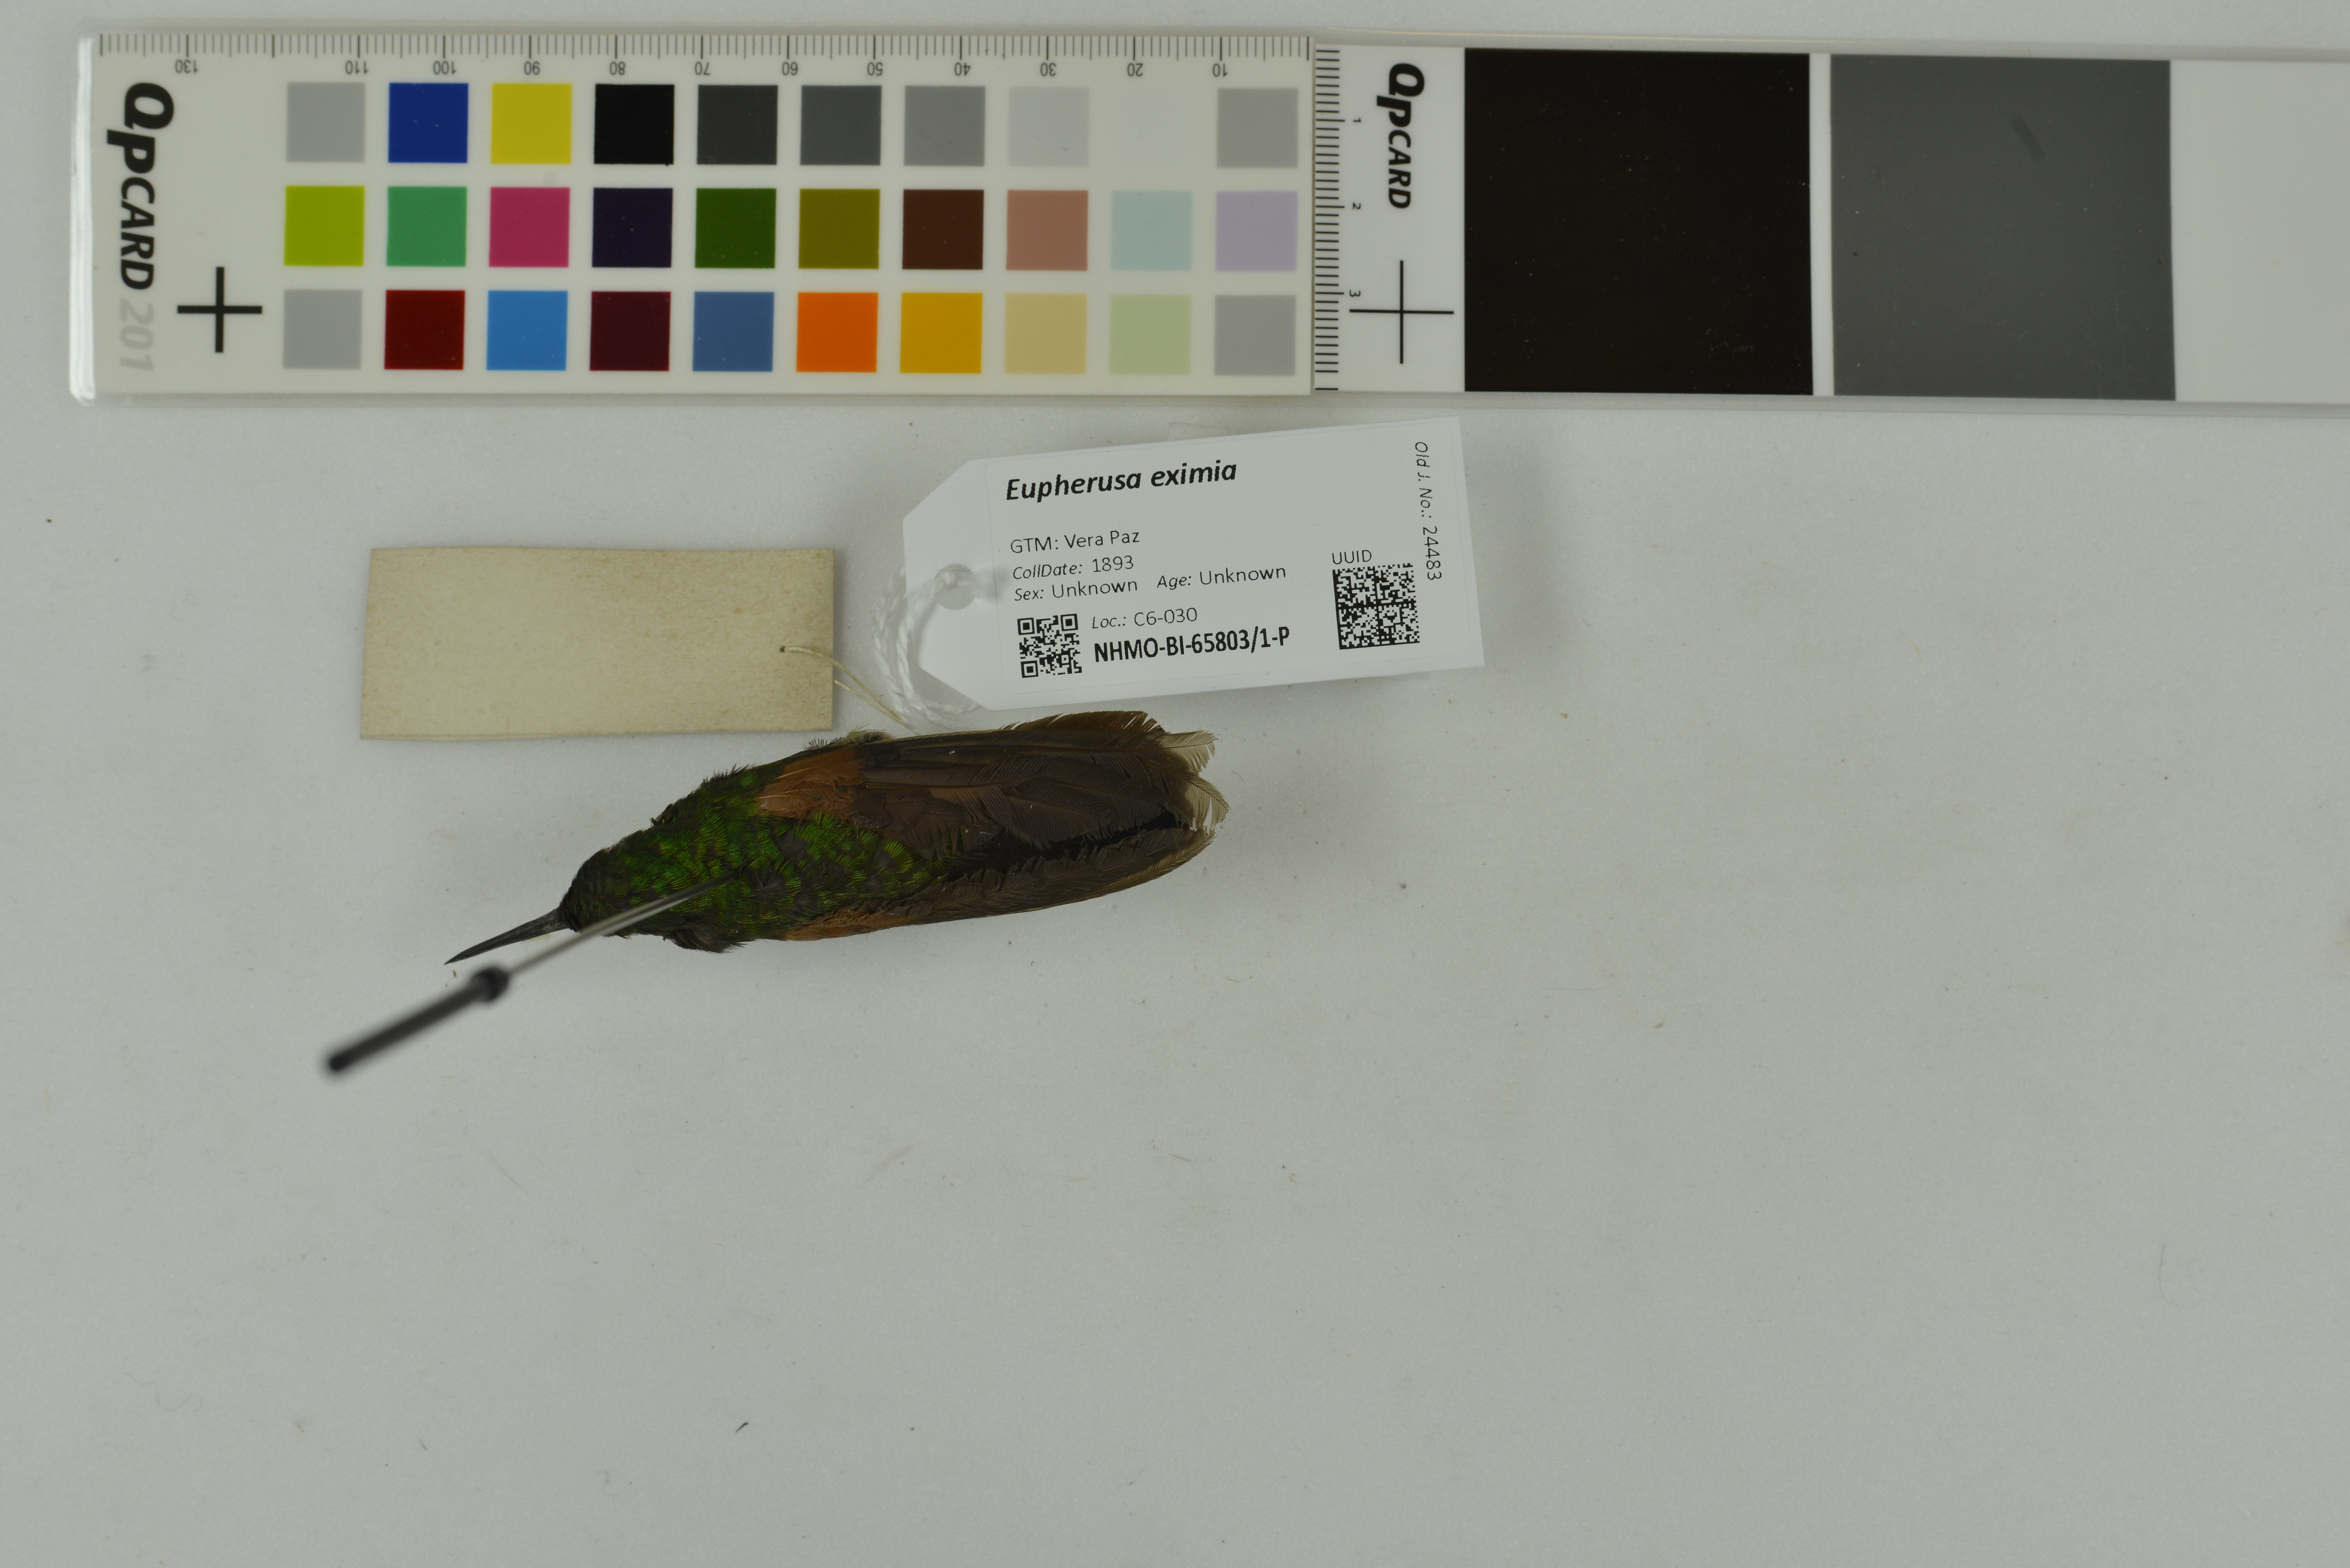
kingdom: Animalia
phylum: Chordata
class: Aves
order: Apodiformes
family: Trochilidae
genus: Eupherusa
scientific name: Eupherusa eximia
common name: Stripe-tailed hummingbird
